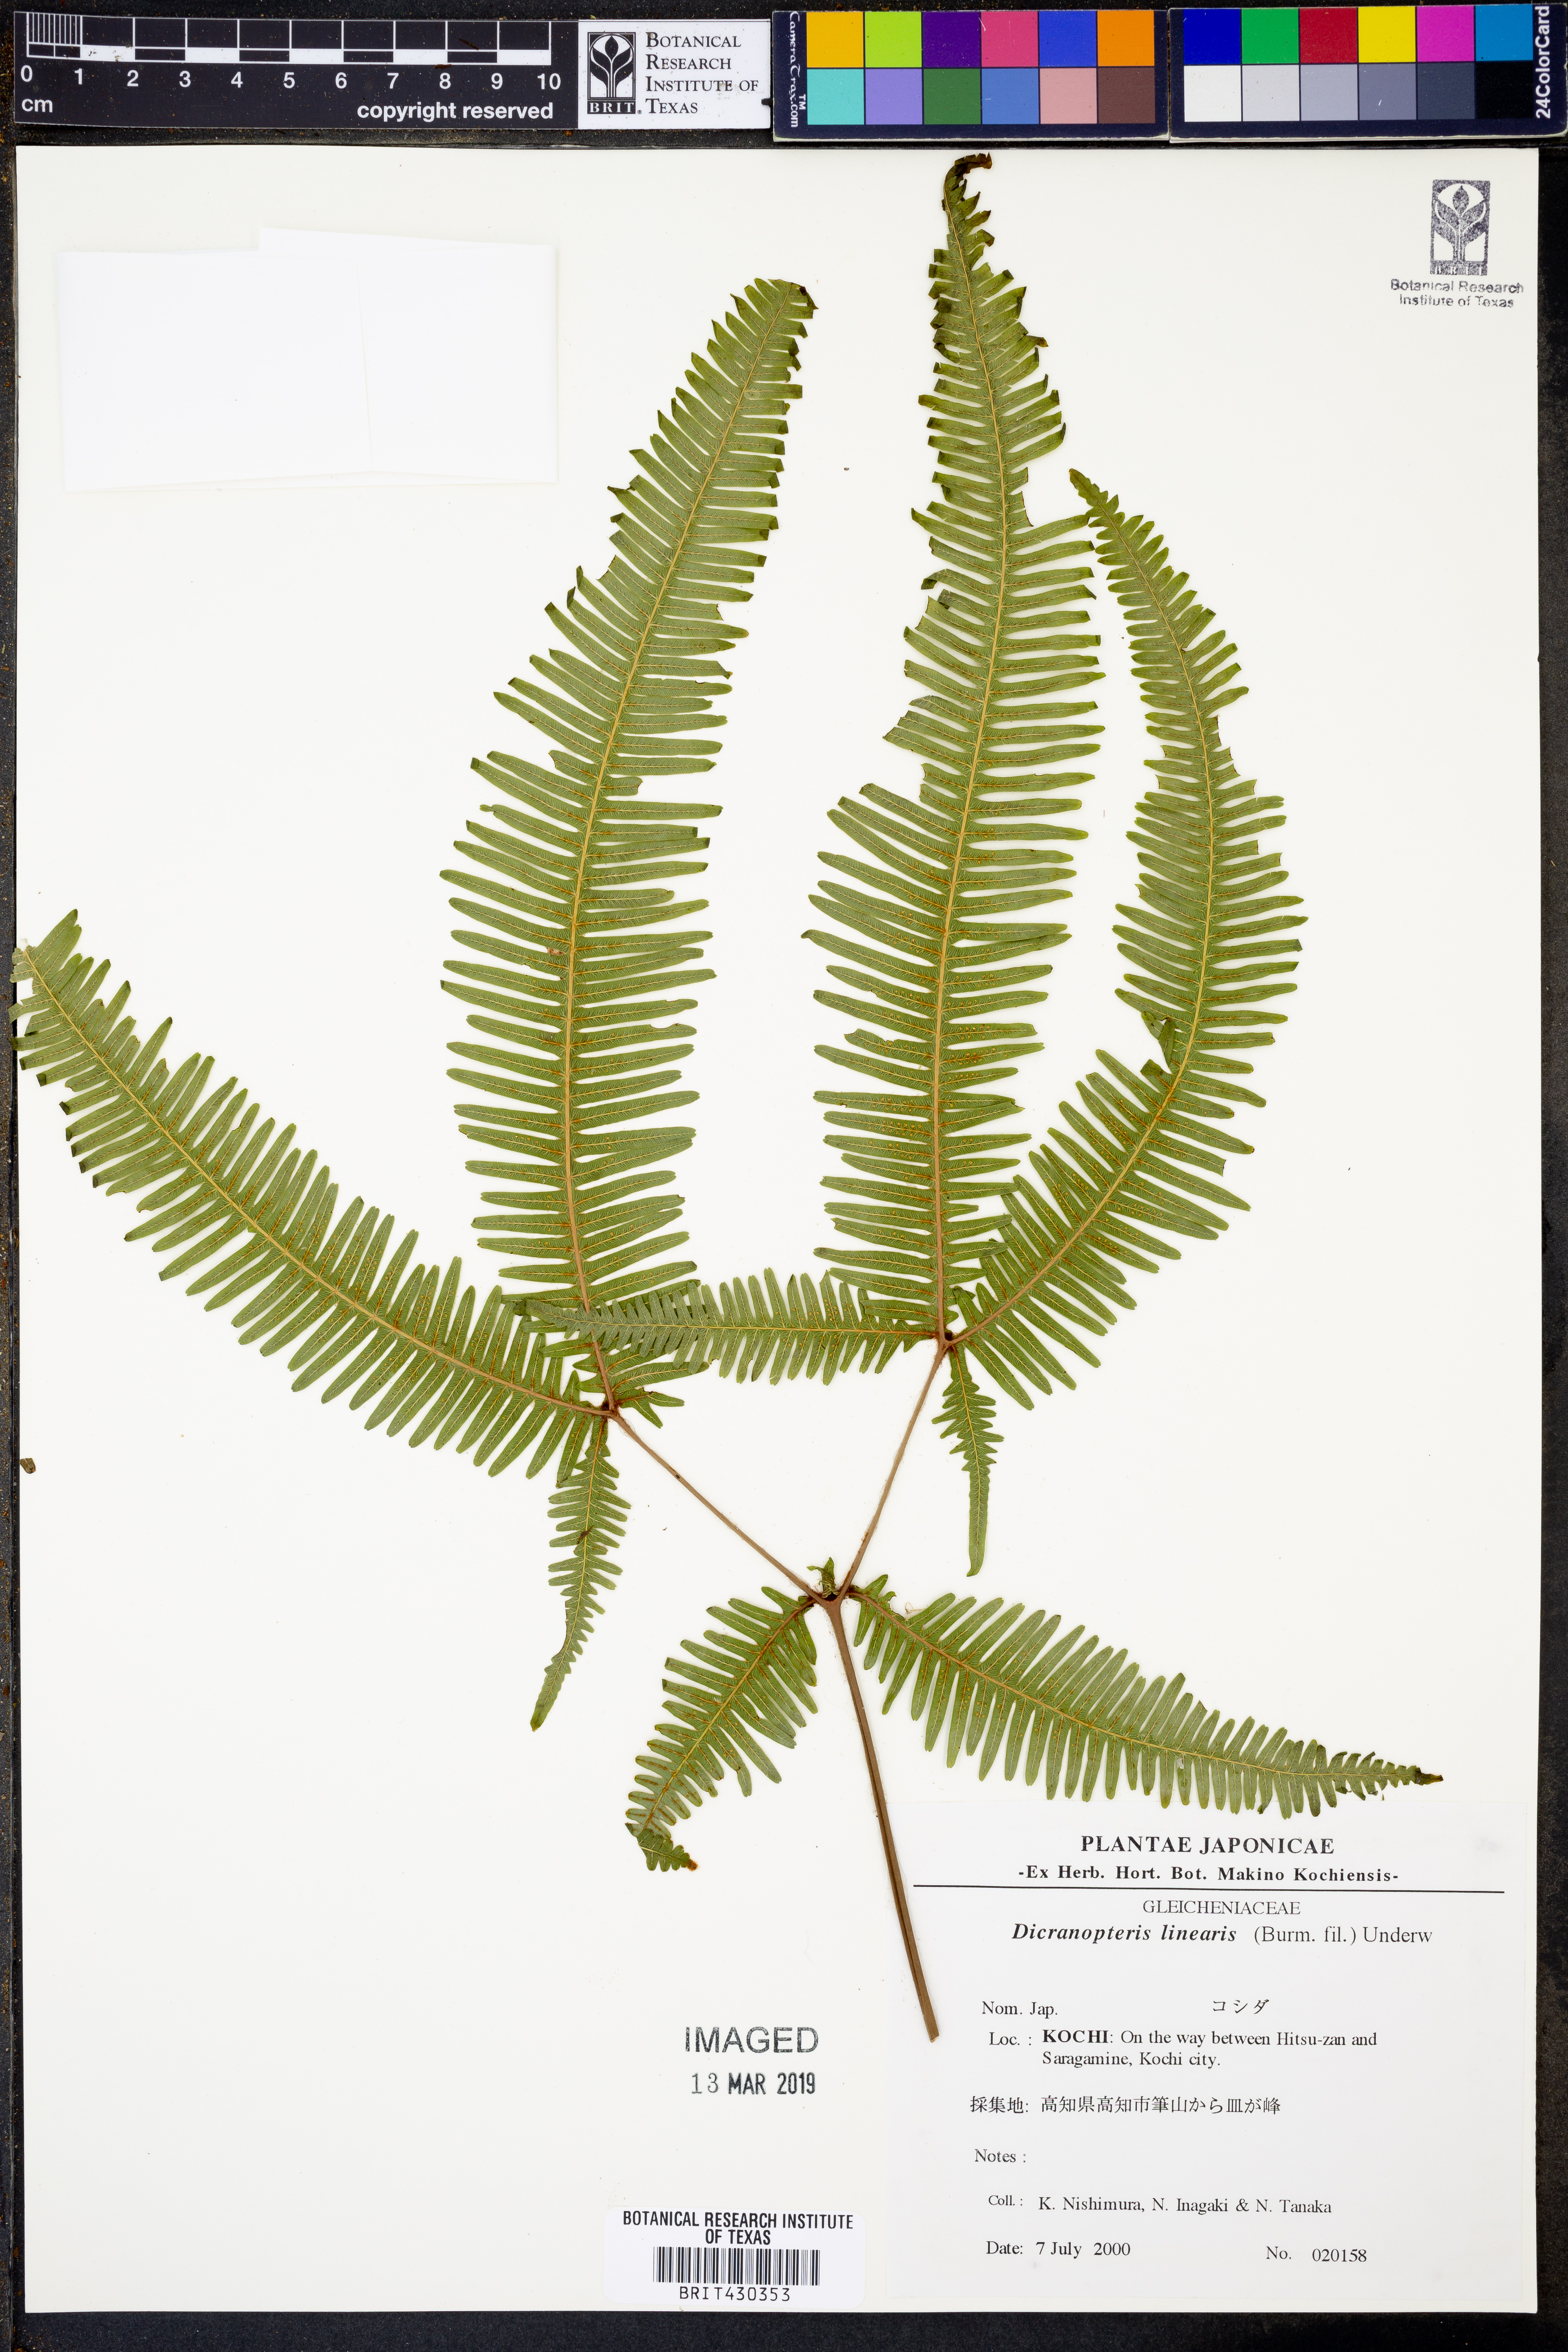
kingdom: Plantae
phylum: Tracheophyta
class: Polypodiopsida
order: Gleicheniales
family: Gleicheniaceae
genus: Dicranopteris
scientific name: Dicranopteris linearis
